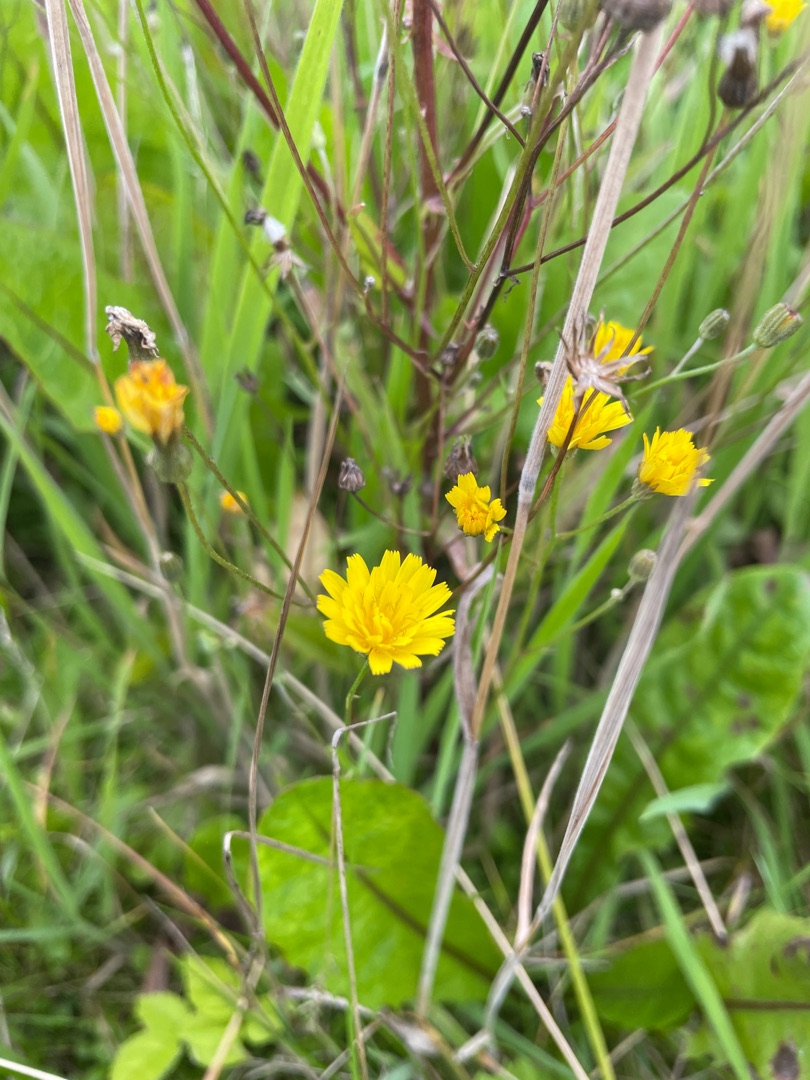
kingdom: Plantae
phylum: Tracheophyta
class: Magnoliopsida
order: Asterales
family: Asteraceae
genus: Crepis
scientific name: Crepis capillaris
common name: Grøn høgeskæg
